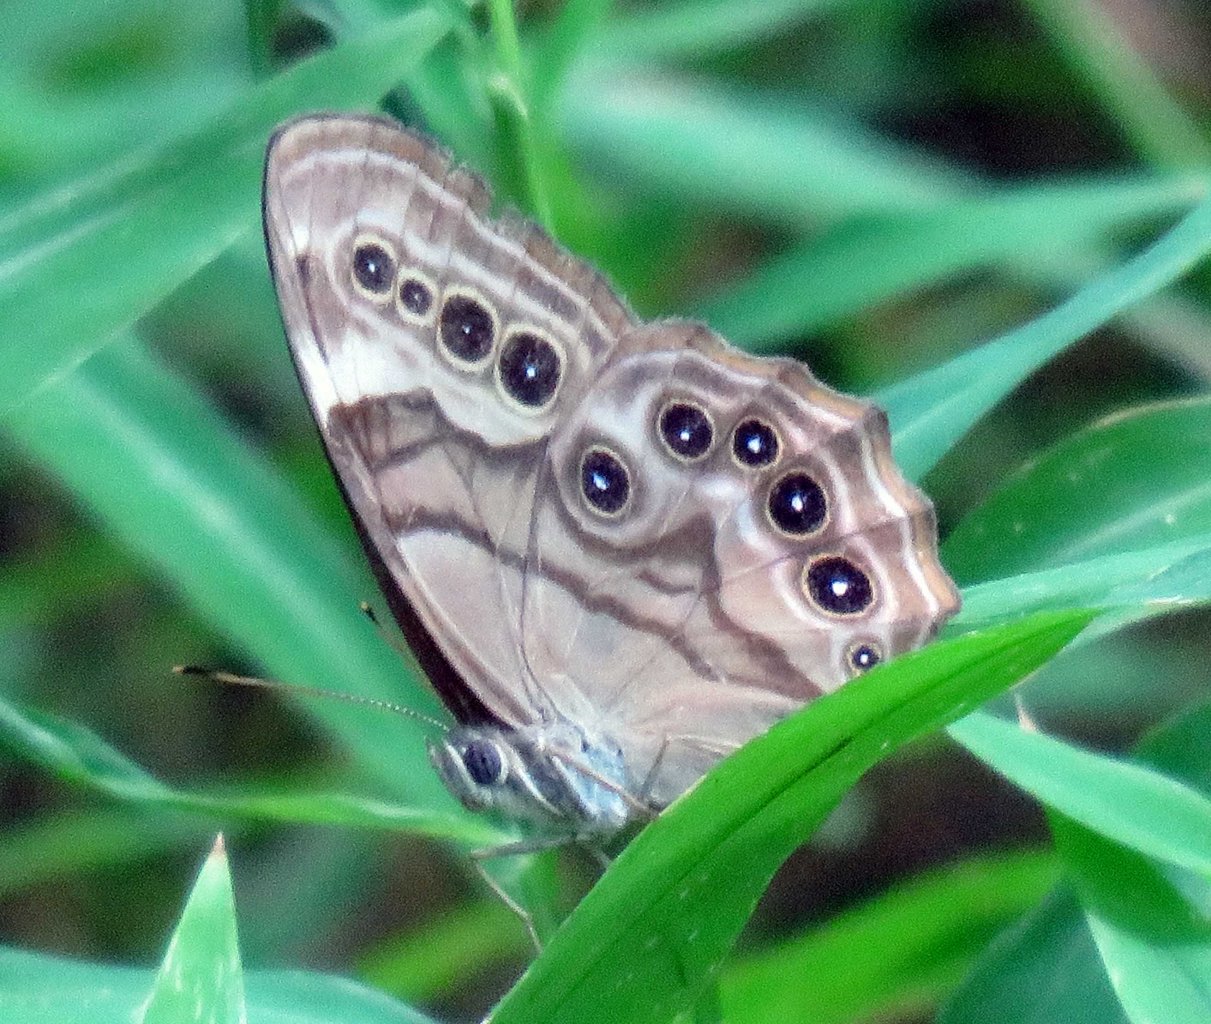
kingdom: Animalia
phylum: Arthropoda
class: Insecta
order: Lepidoptera
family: Nymphalidae
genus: Lethe
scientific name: Lethe anthedon
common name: Northern Pearly-Eye
